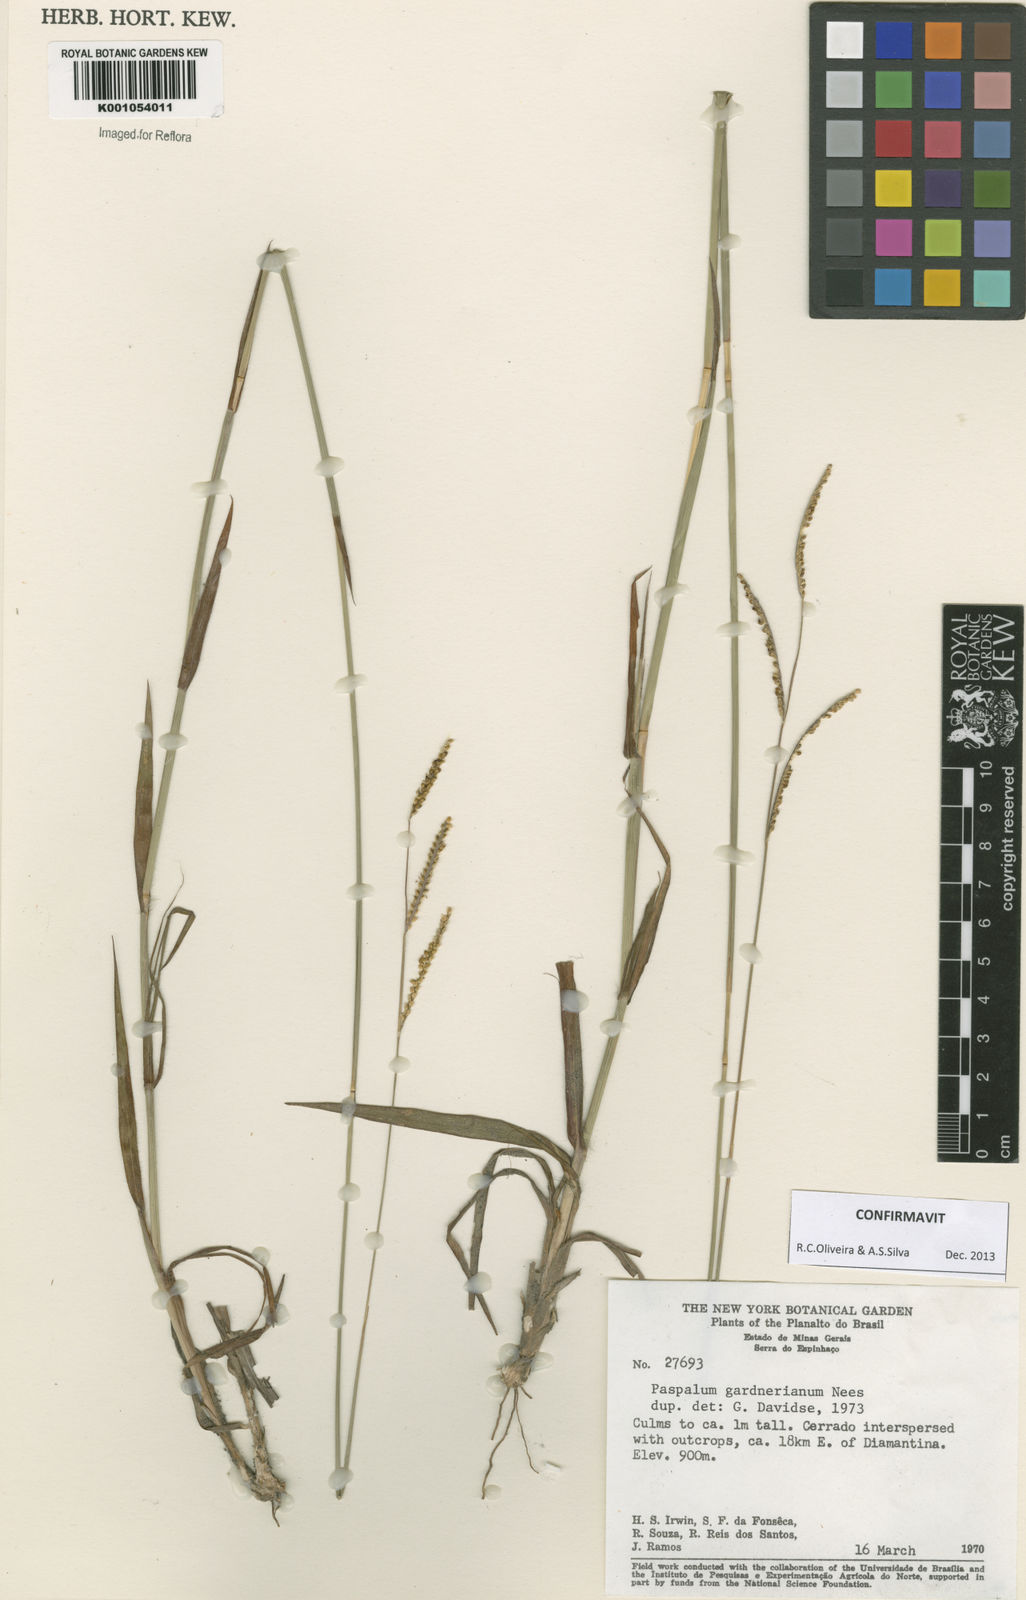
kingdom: Plantae
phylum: Tracheophyta
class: Liliopsida
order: Poales
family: Poaceae
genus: Paspalum
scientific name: Paspalum gardnerianum
